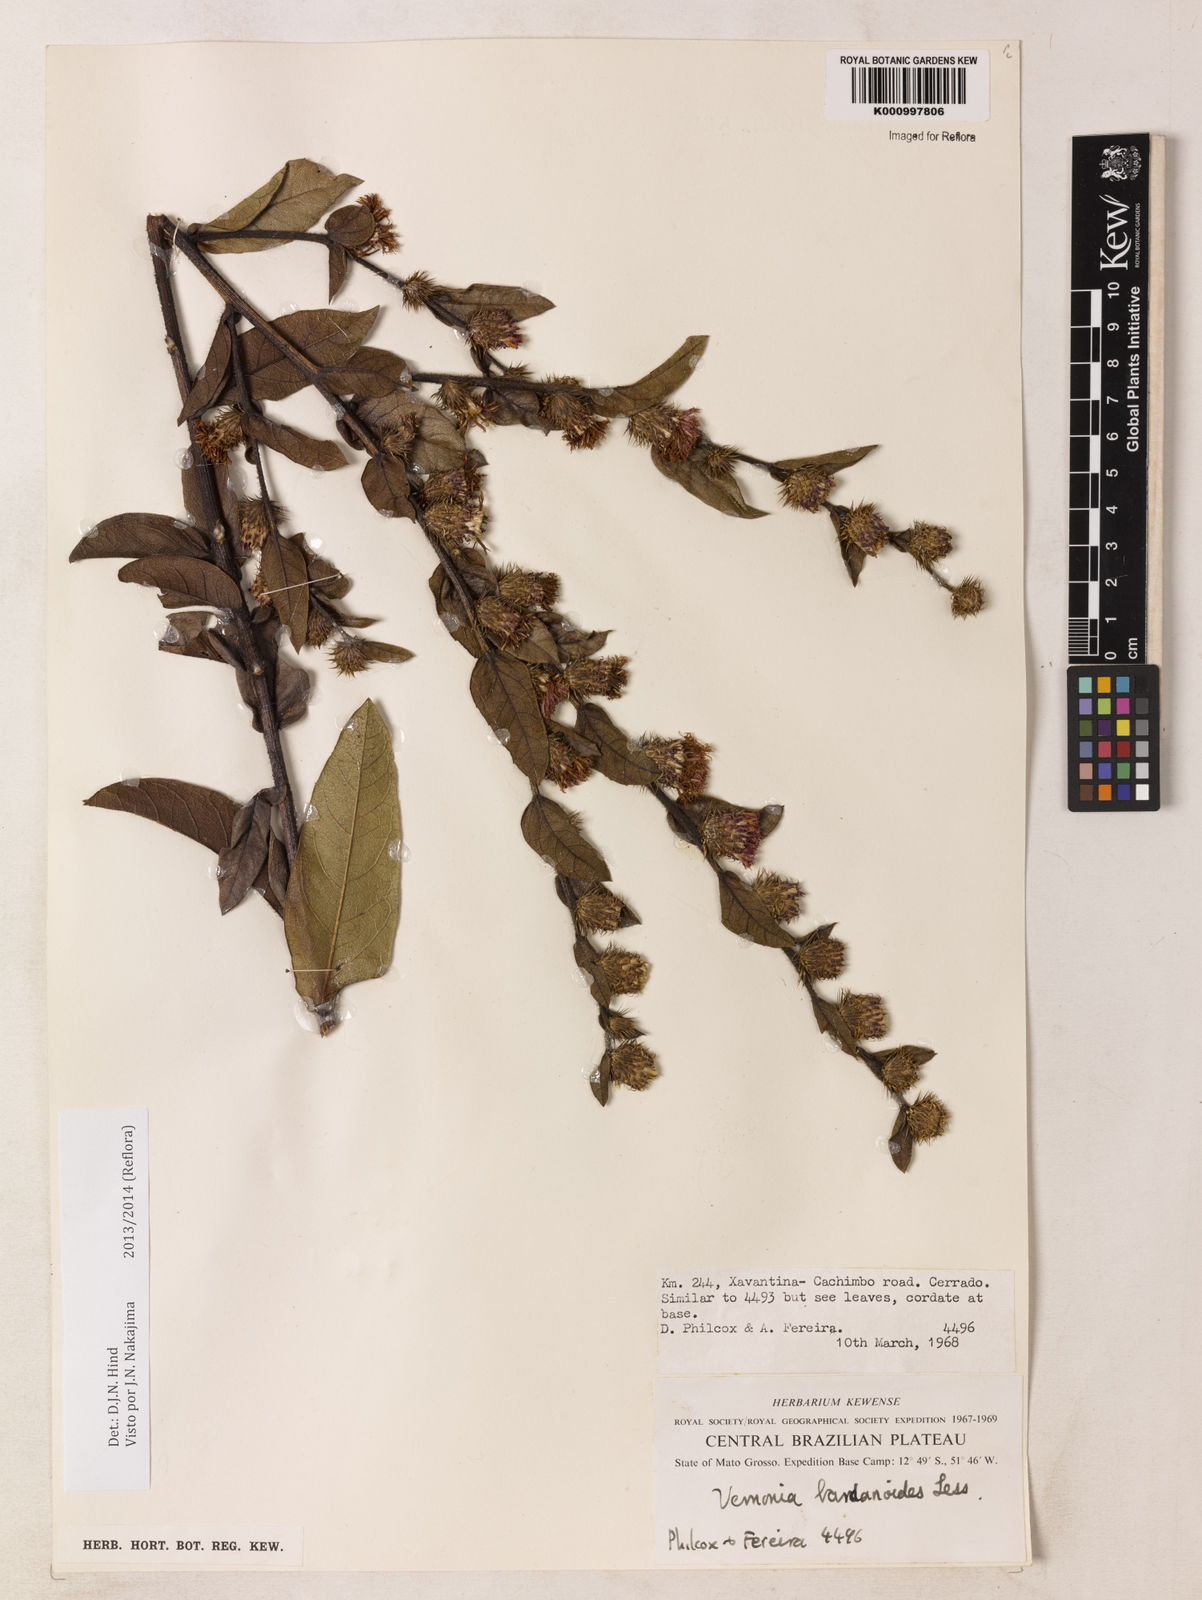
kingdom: Plantae
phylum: Tracheophyta
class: Magnoliopsida
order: Asterales
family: Asteraceae
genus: Lessingianthus
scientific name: Lessingianthus bardanioides
